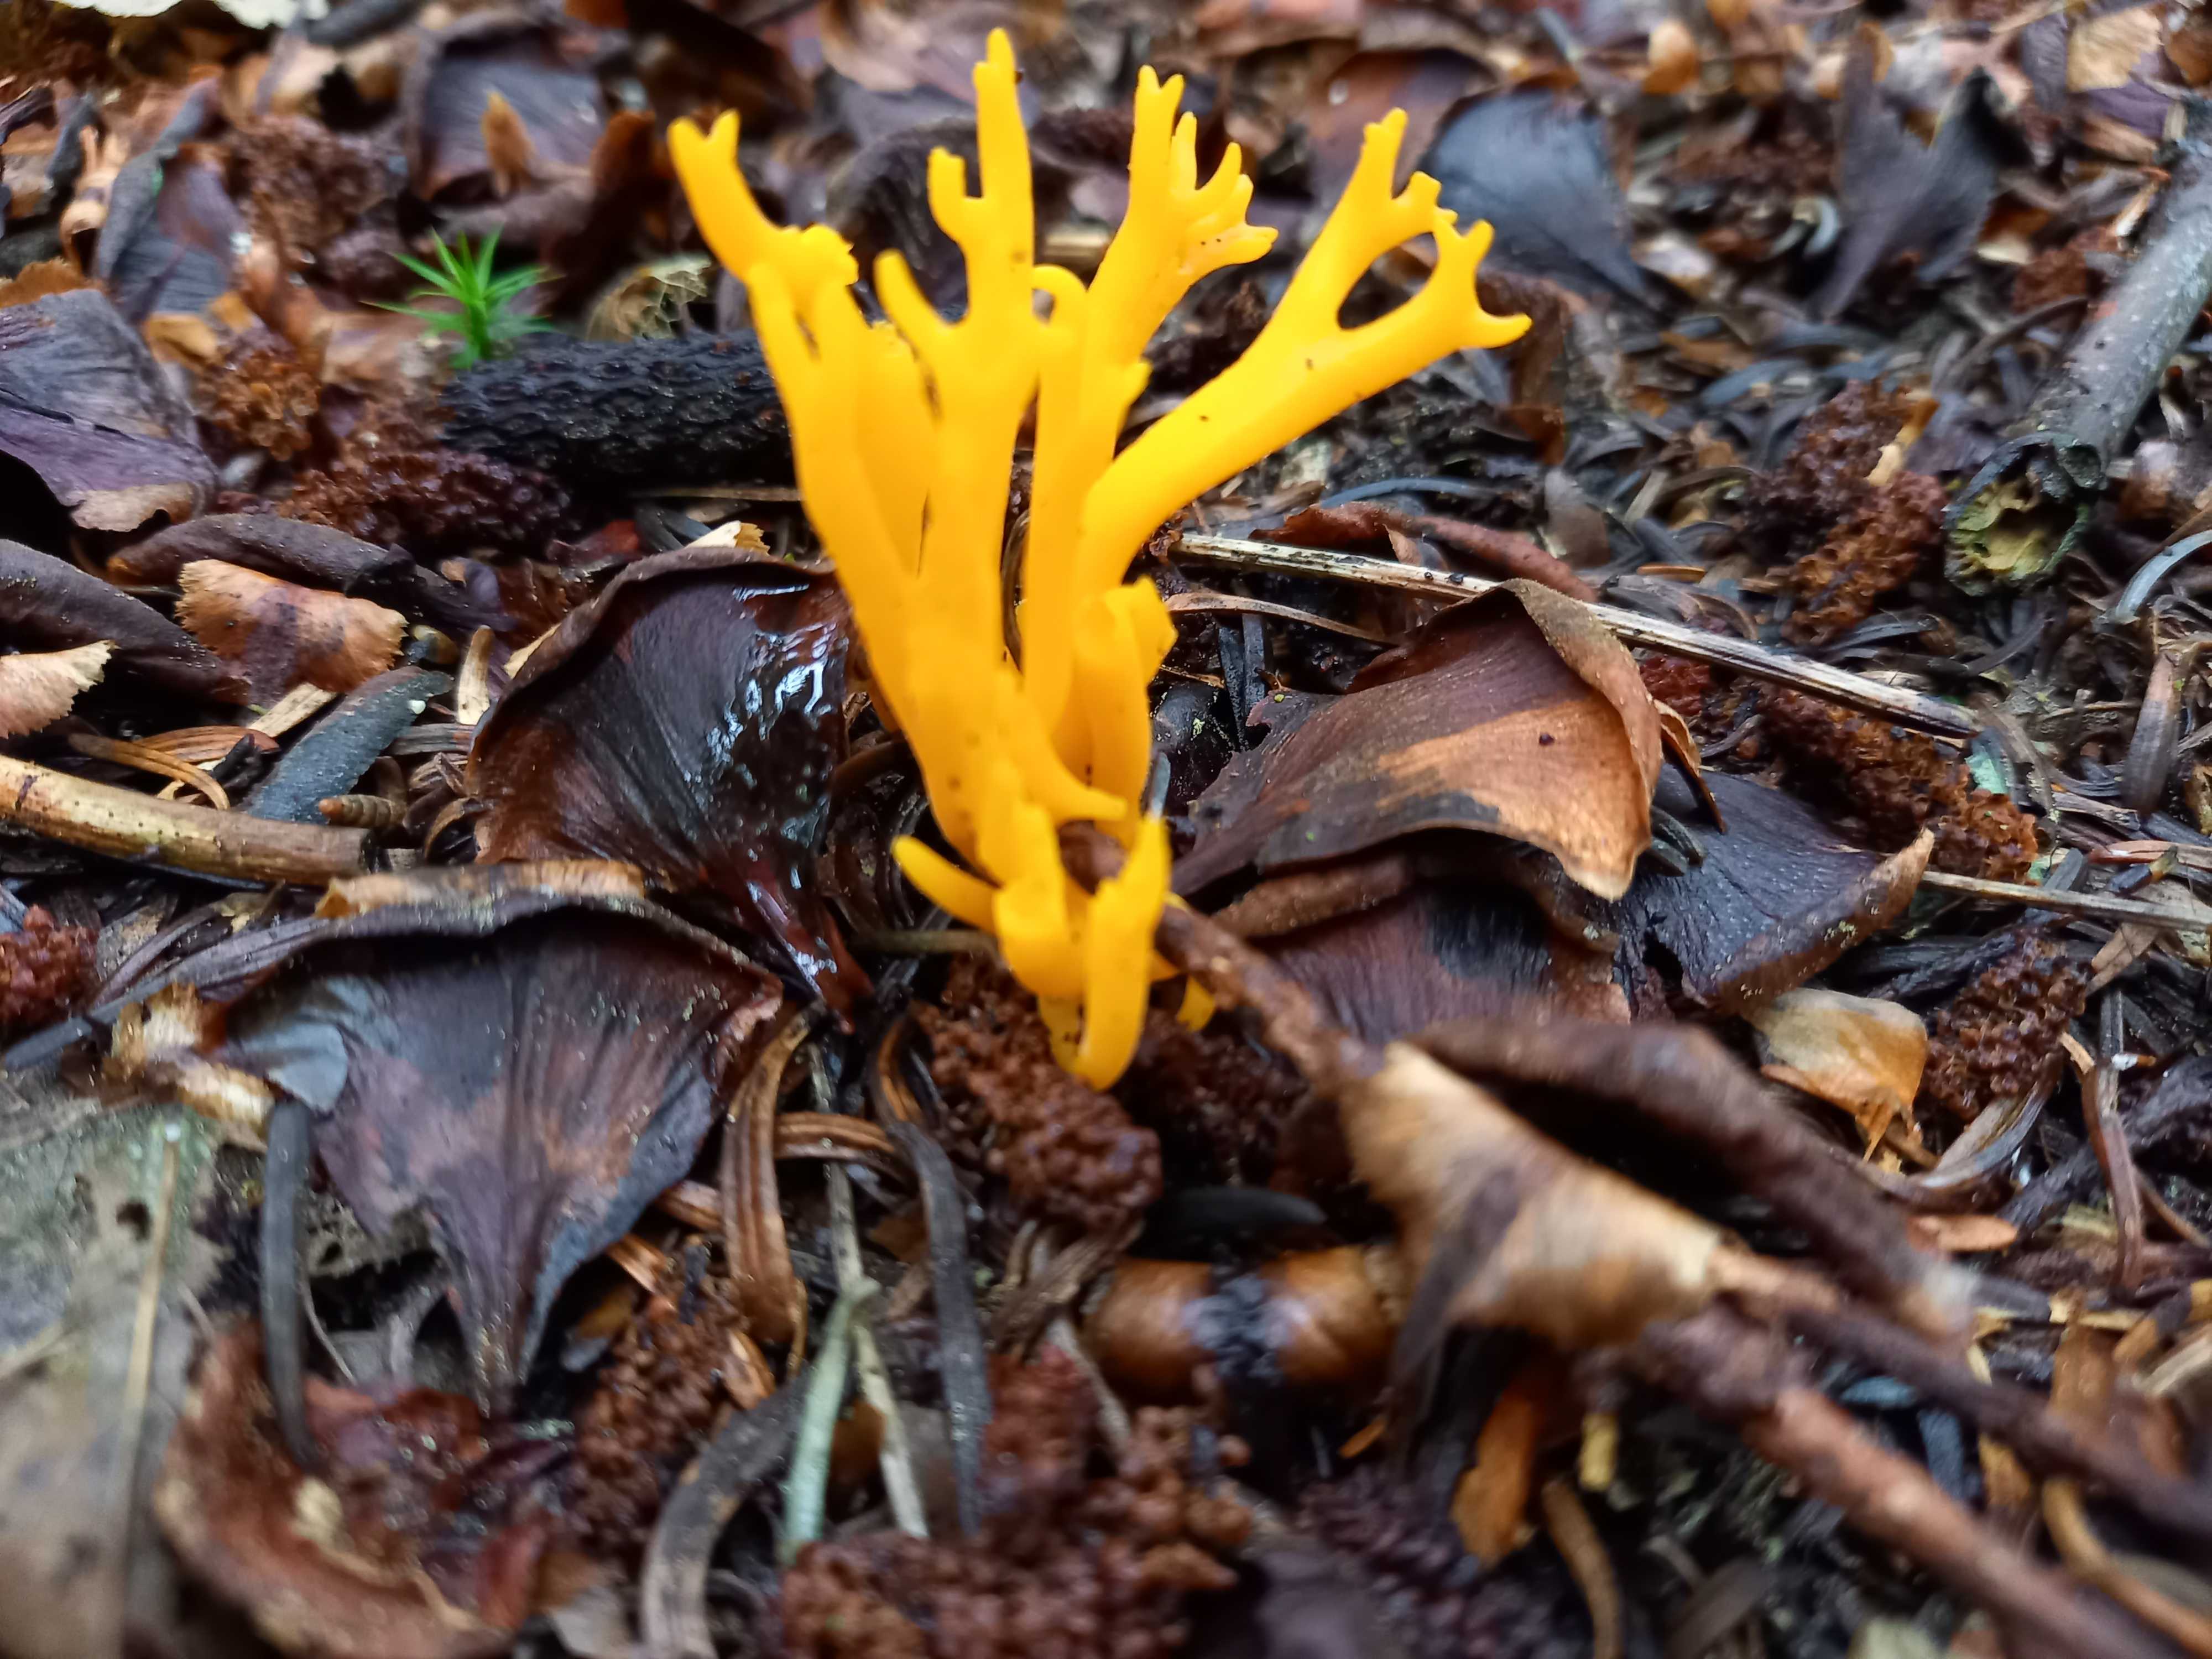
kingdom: Fungi
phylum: Basidiomycota
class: Dacrymycetes
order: Dacrymycetales
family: Dacrymycetaceae
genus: Calocera
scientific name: Calocera viscosa
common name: almindelig guldgaffel
